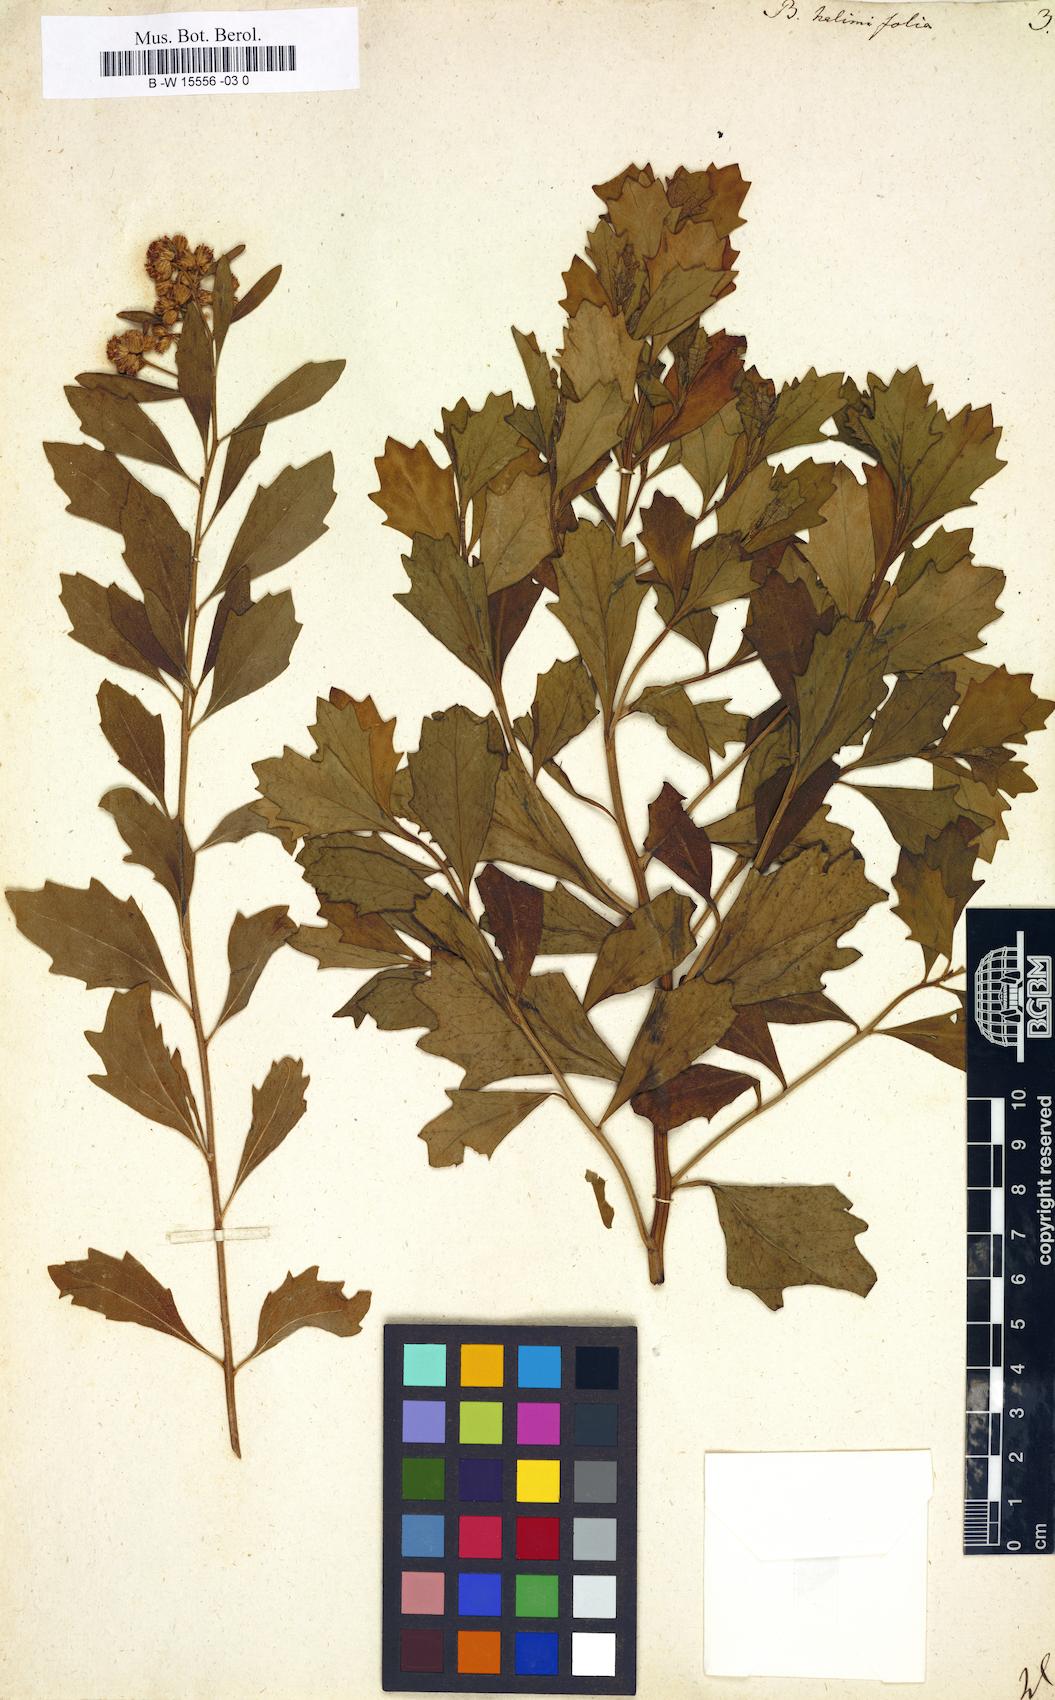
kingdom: Plantae
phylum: Tracheophyta
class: Magnoliopsida
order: Asterales
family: Asteraceae
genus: Baccharis
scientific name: Baccharis halimifolia
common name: Eastern baccharis
